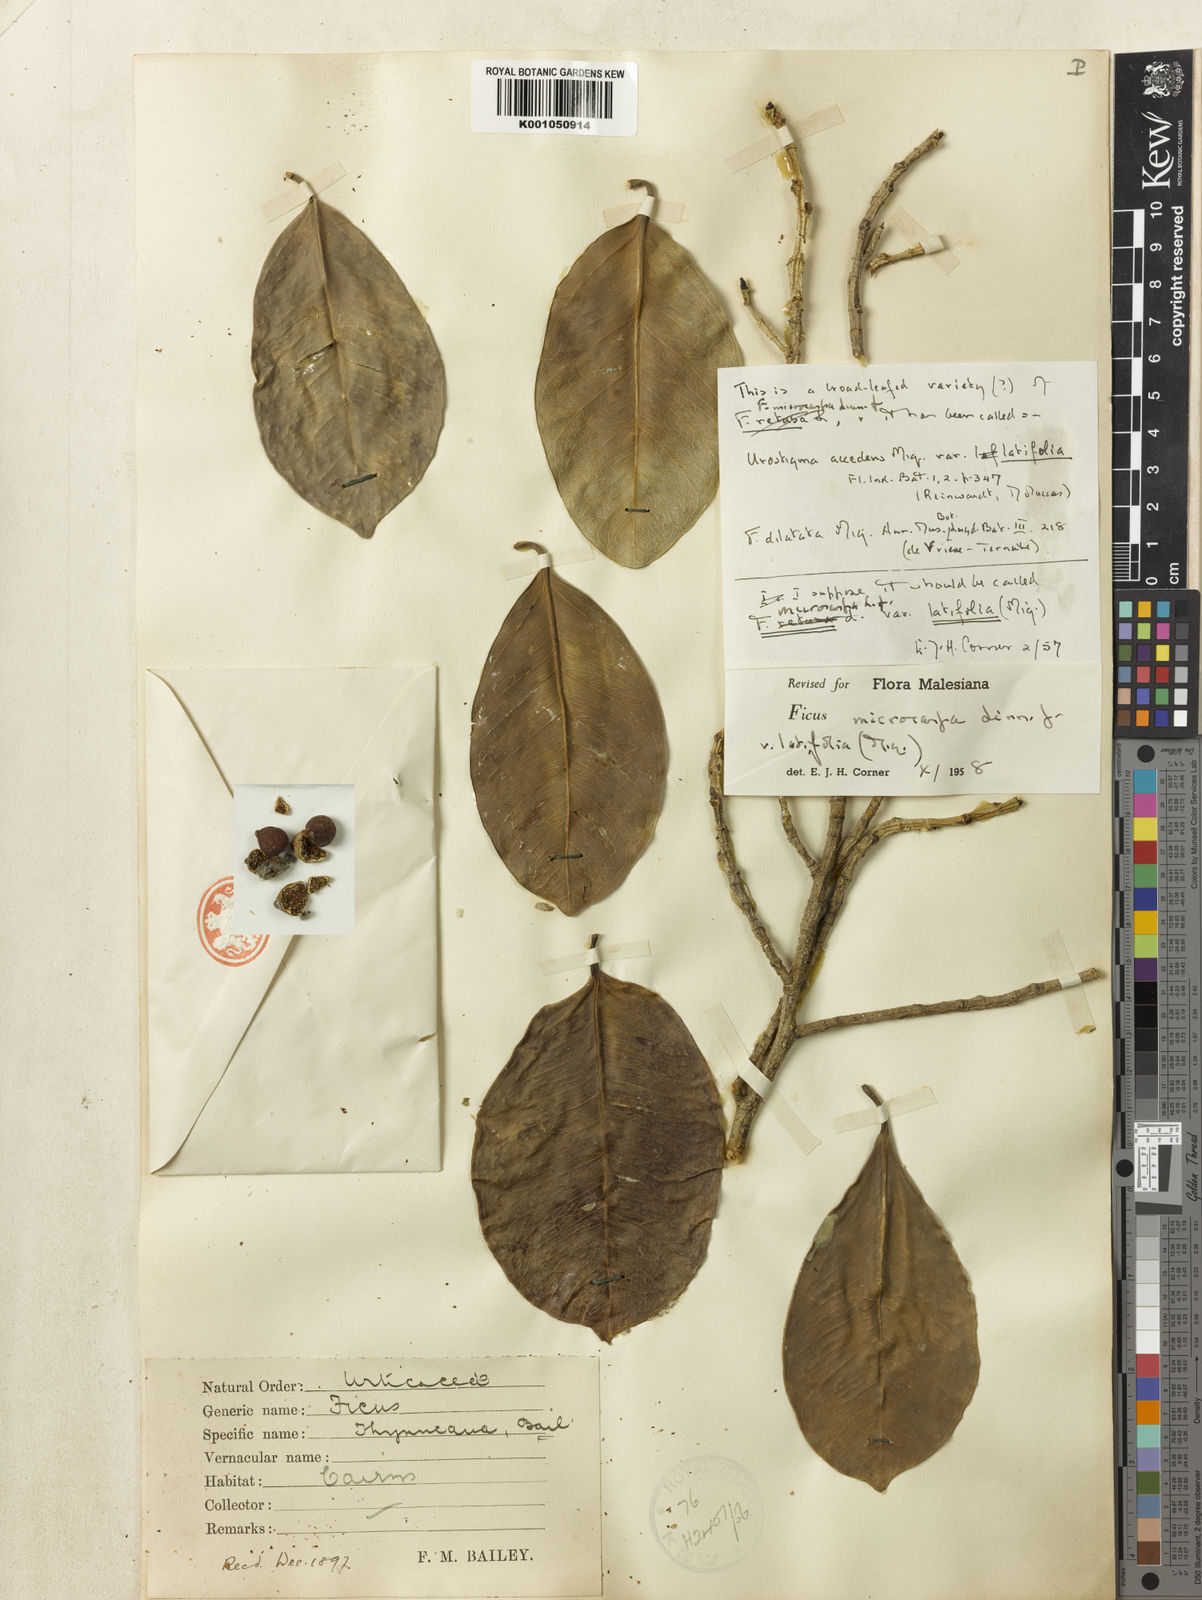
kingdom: Plantae
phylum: Tracheophyta
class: Magnoliopsida
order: Rosales
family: Moraceae
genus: Ficus
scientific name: Ficus microcarpa
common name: Chinese banyan
